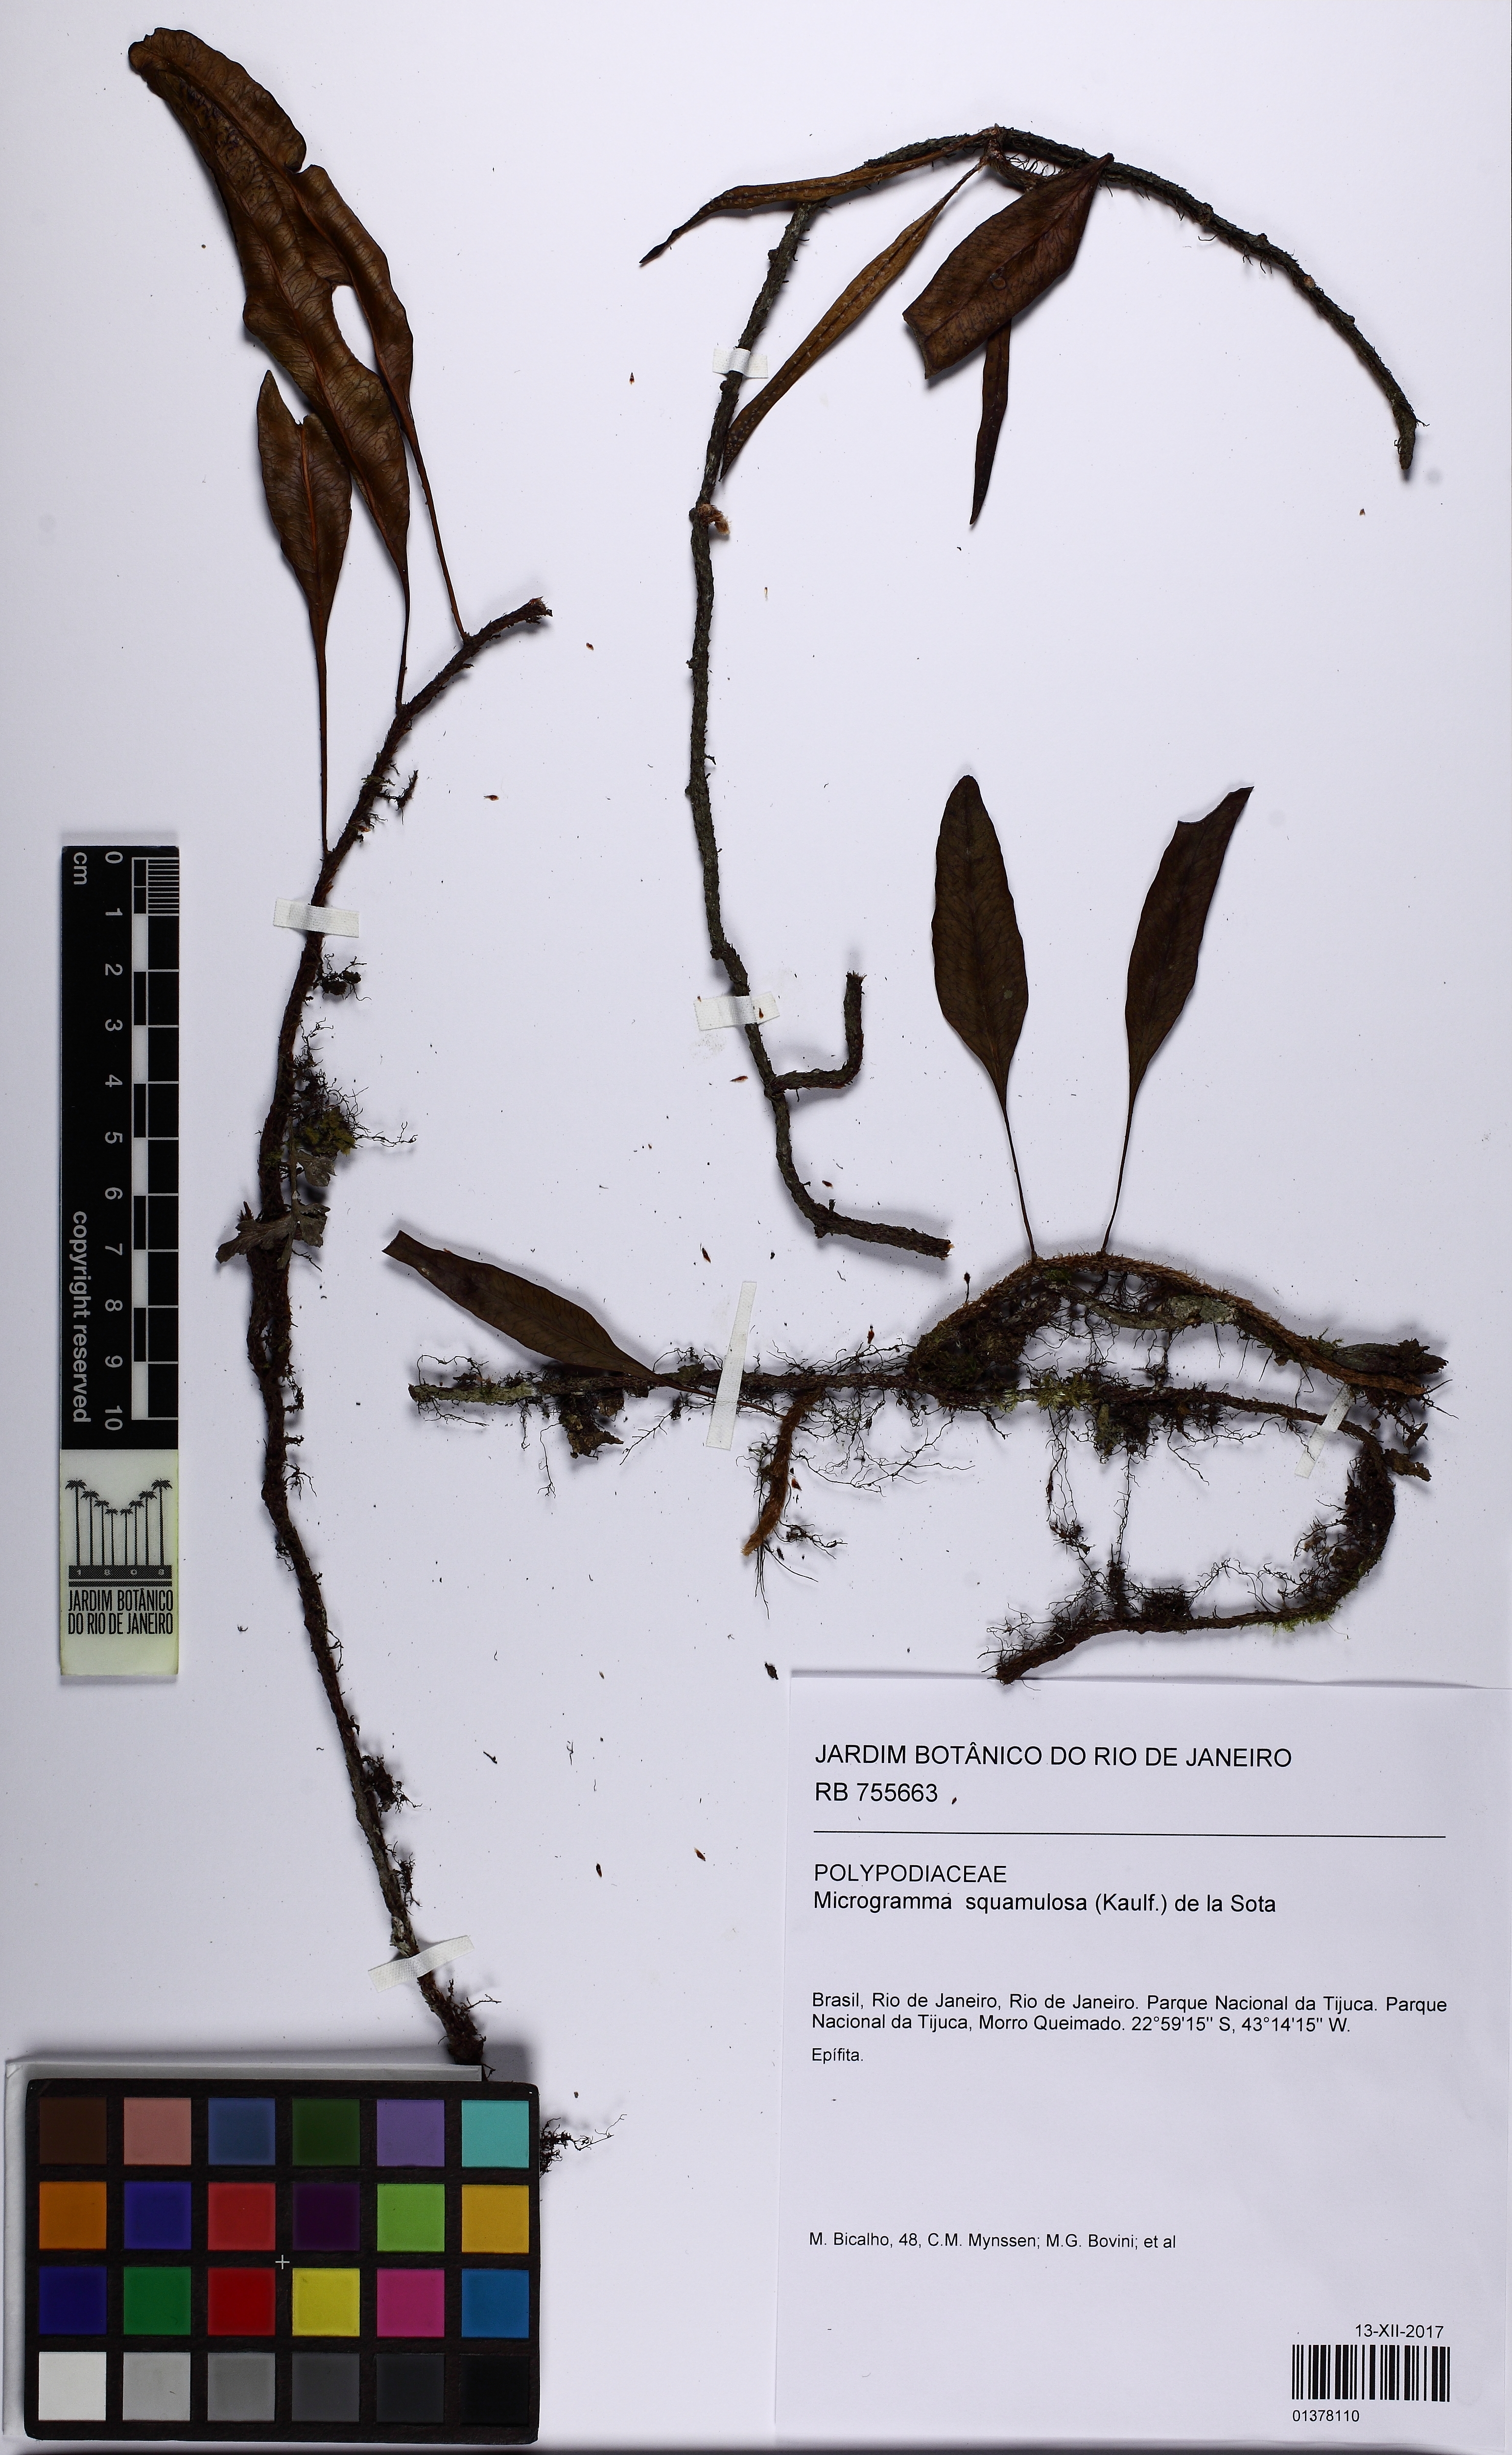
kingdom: Plantae
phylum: Tracheophyta
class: Polypodiopsida
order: Polypodiales
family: Polypodiaceae
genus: Microgramma
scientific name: Microgramma squamulosa
